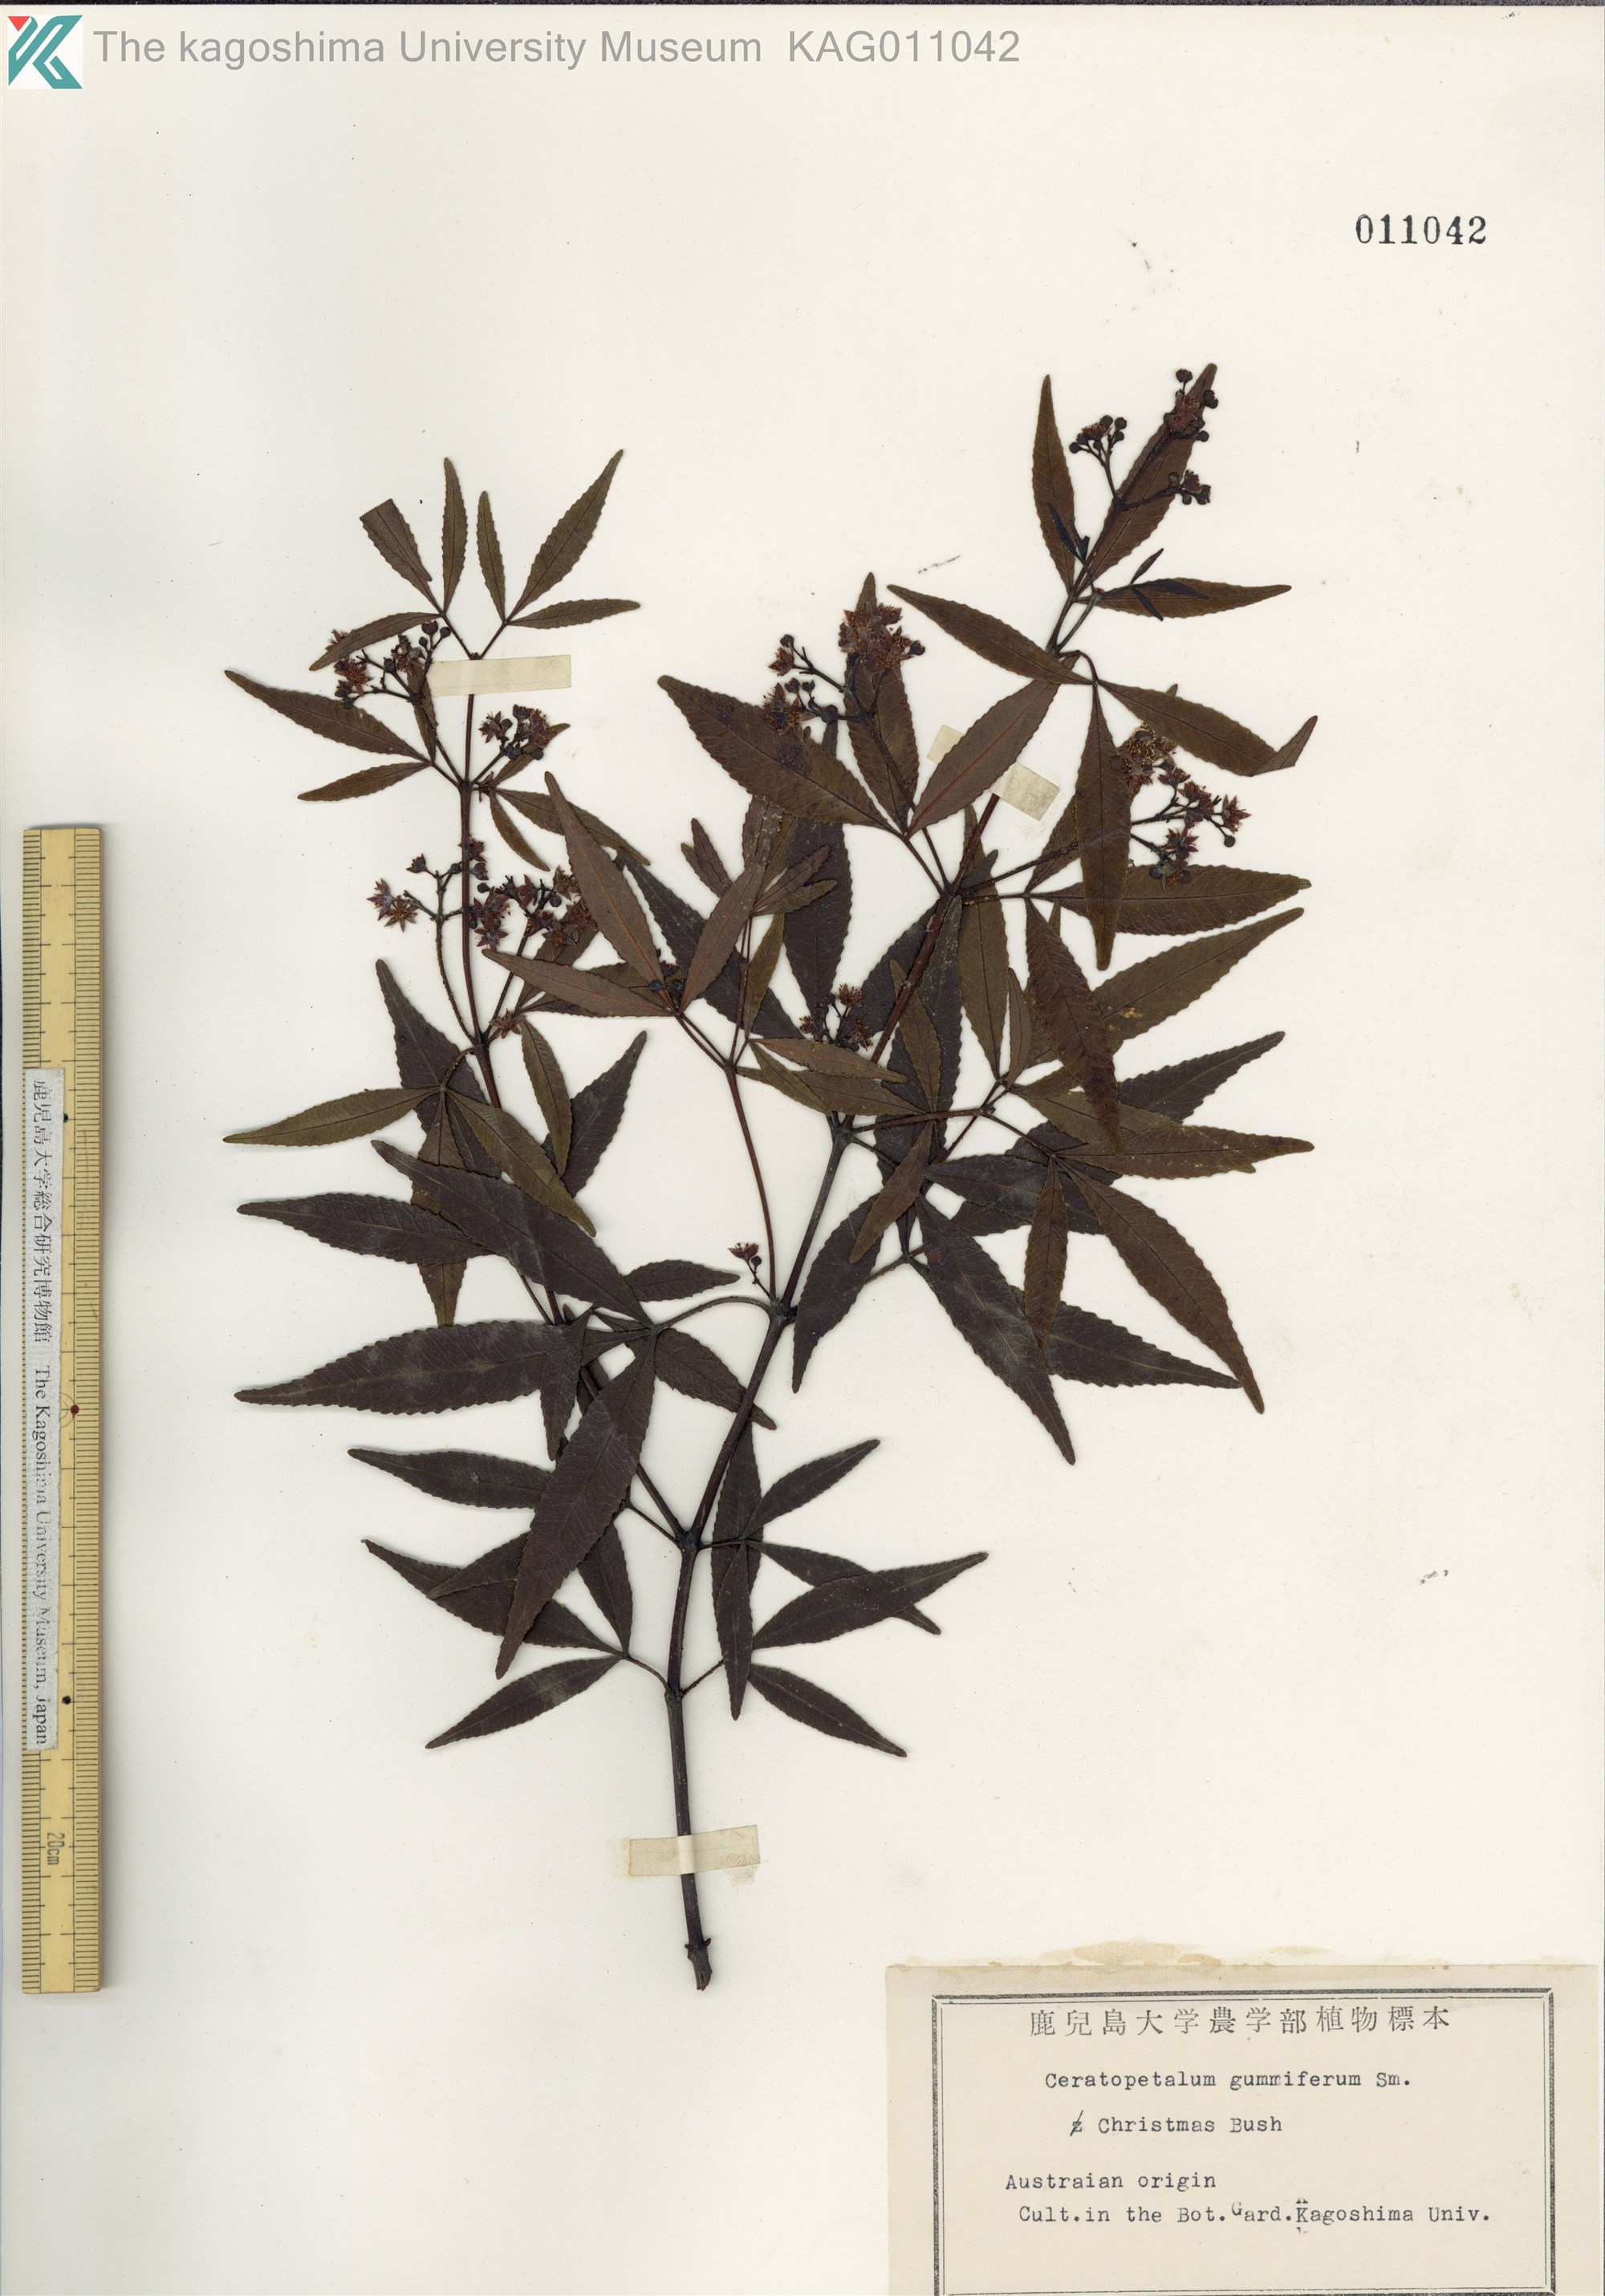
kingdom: Plantae
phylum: Tracheophyta
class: Magnoliopsida
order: Oxalidales
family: Cunoniaceae
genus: Ceratopetalum
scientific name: Ceratopetalum gummiferum
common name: Christmasbush
